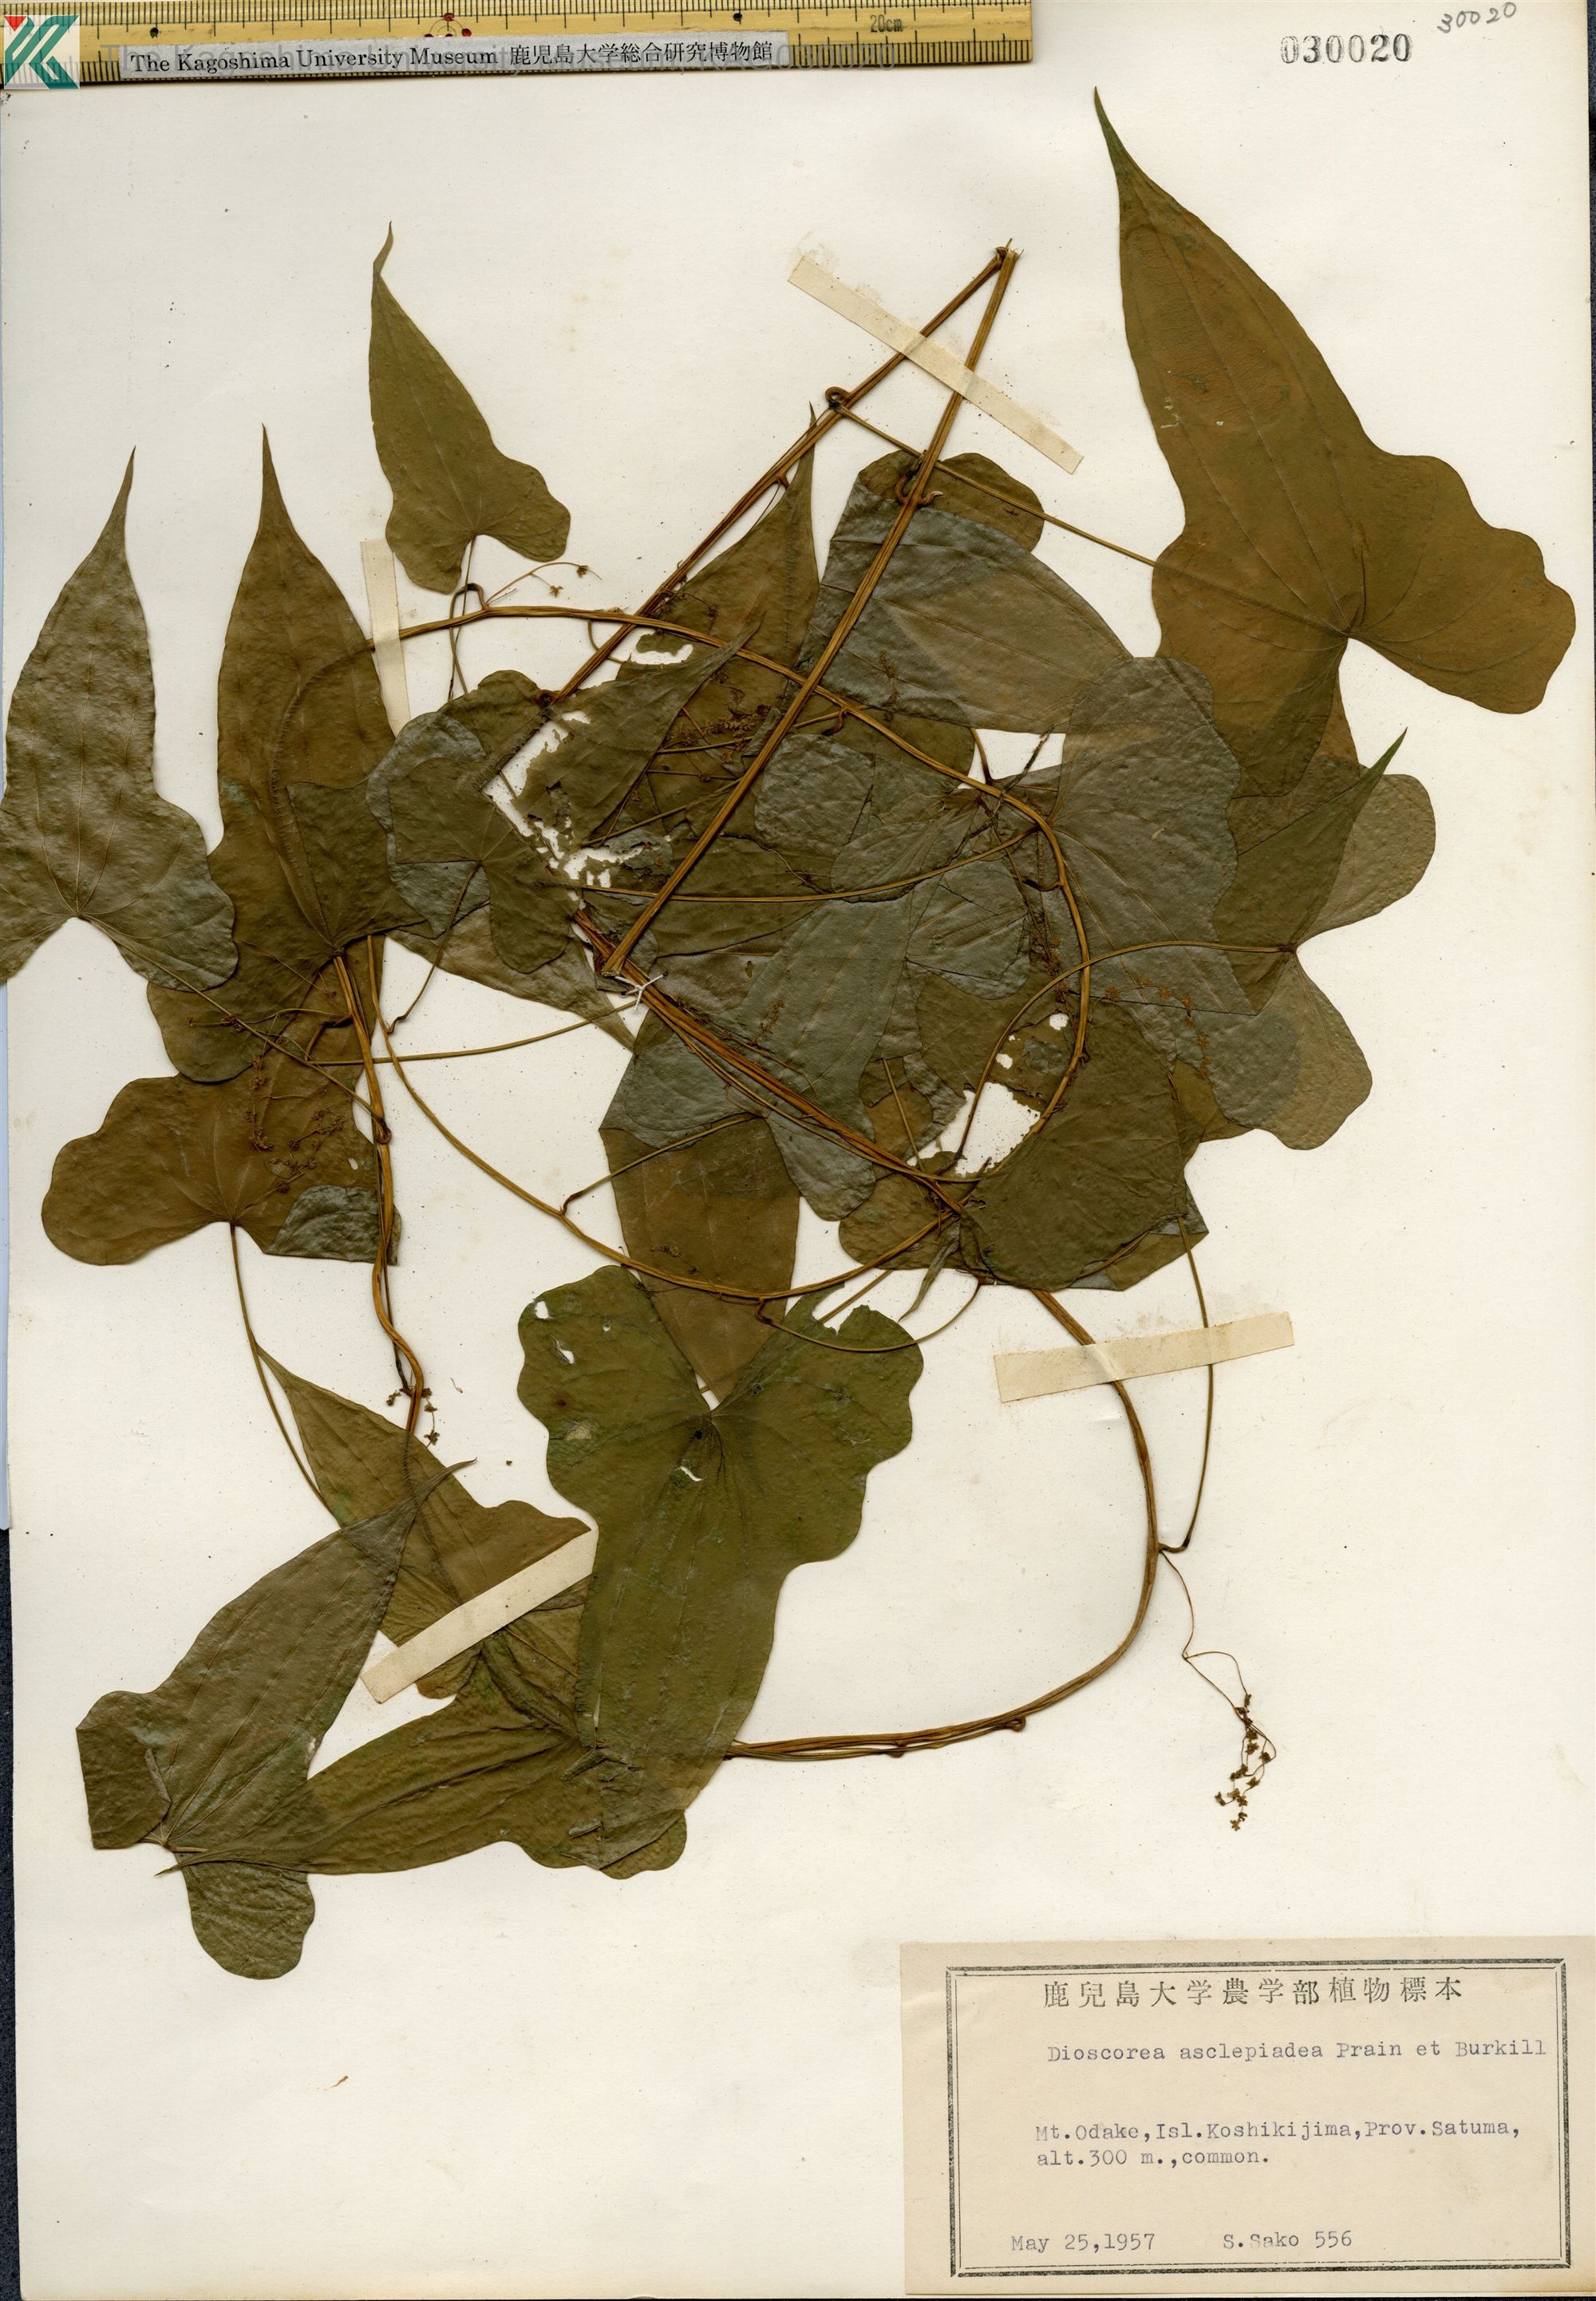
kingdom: Plantae
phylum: Tracheophyta
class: Liliopsida
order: Dioscoreales
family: Dioscoreaceae
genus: Dioscorea
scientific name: Dioscorea asclepiadea
